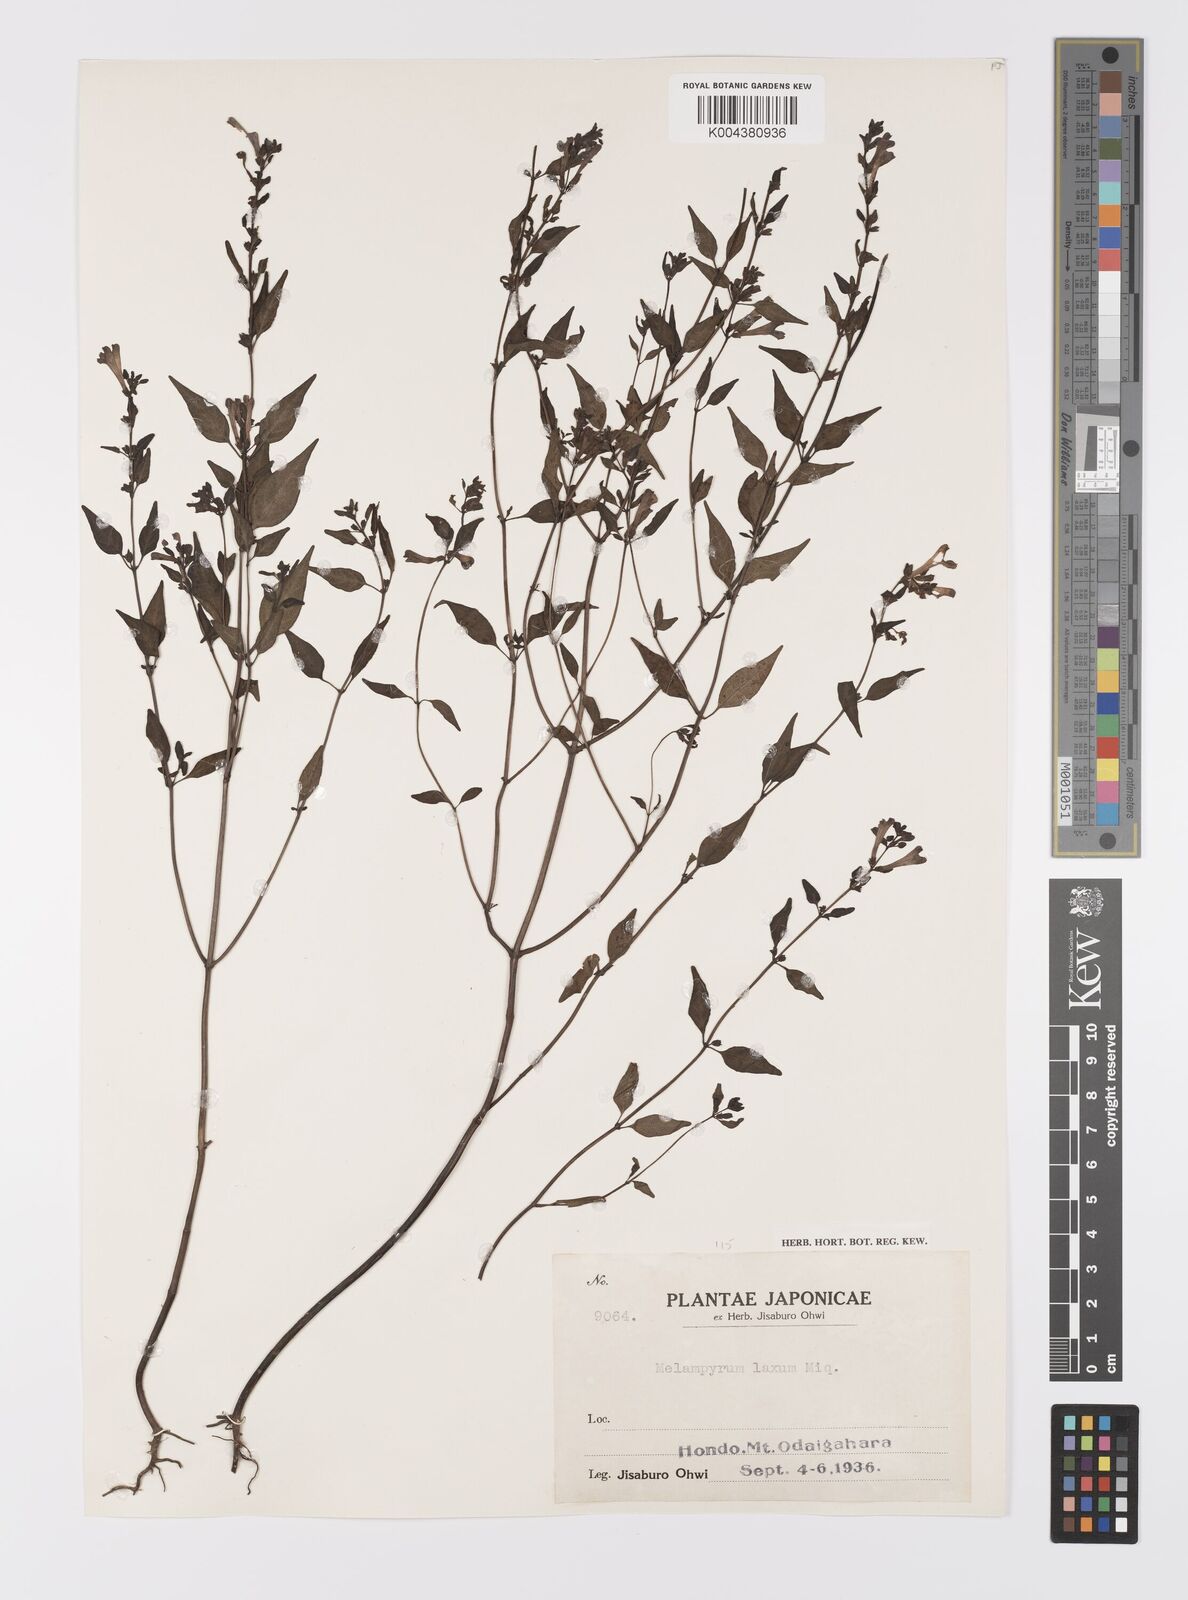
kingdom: Plantae
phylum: Tracheophyta
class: Magnoliopsida
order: Lamiales
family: Orobanchaceae
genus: Melampyrum
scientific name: Melampyrum laxum
